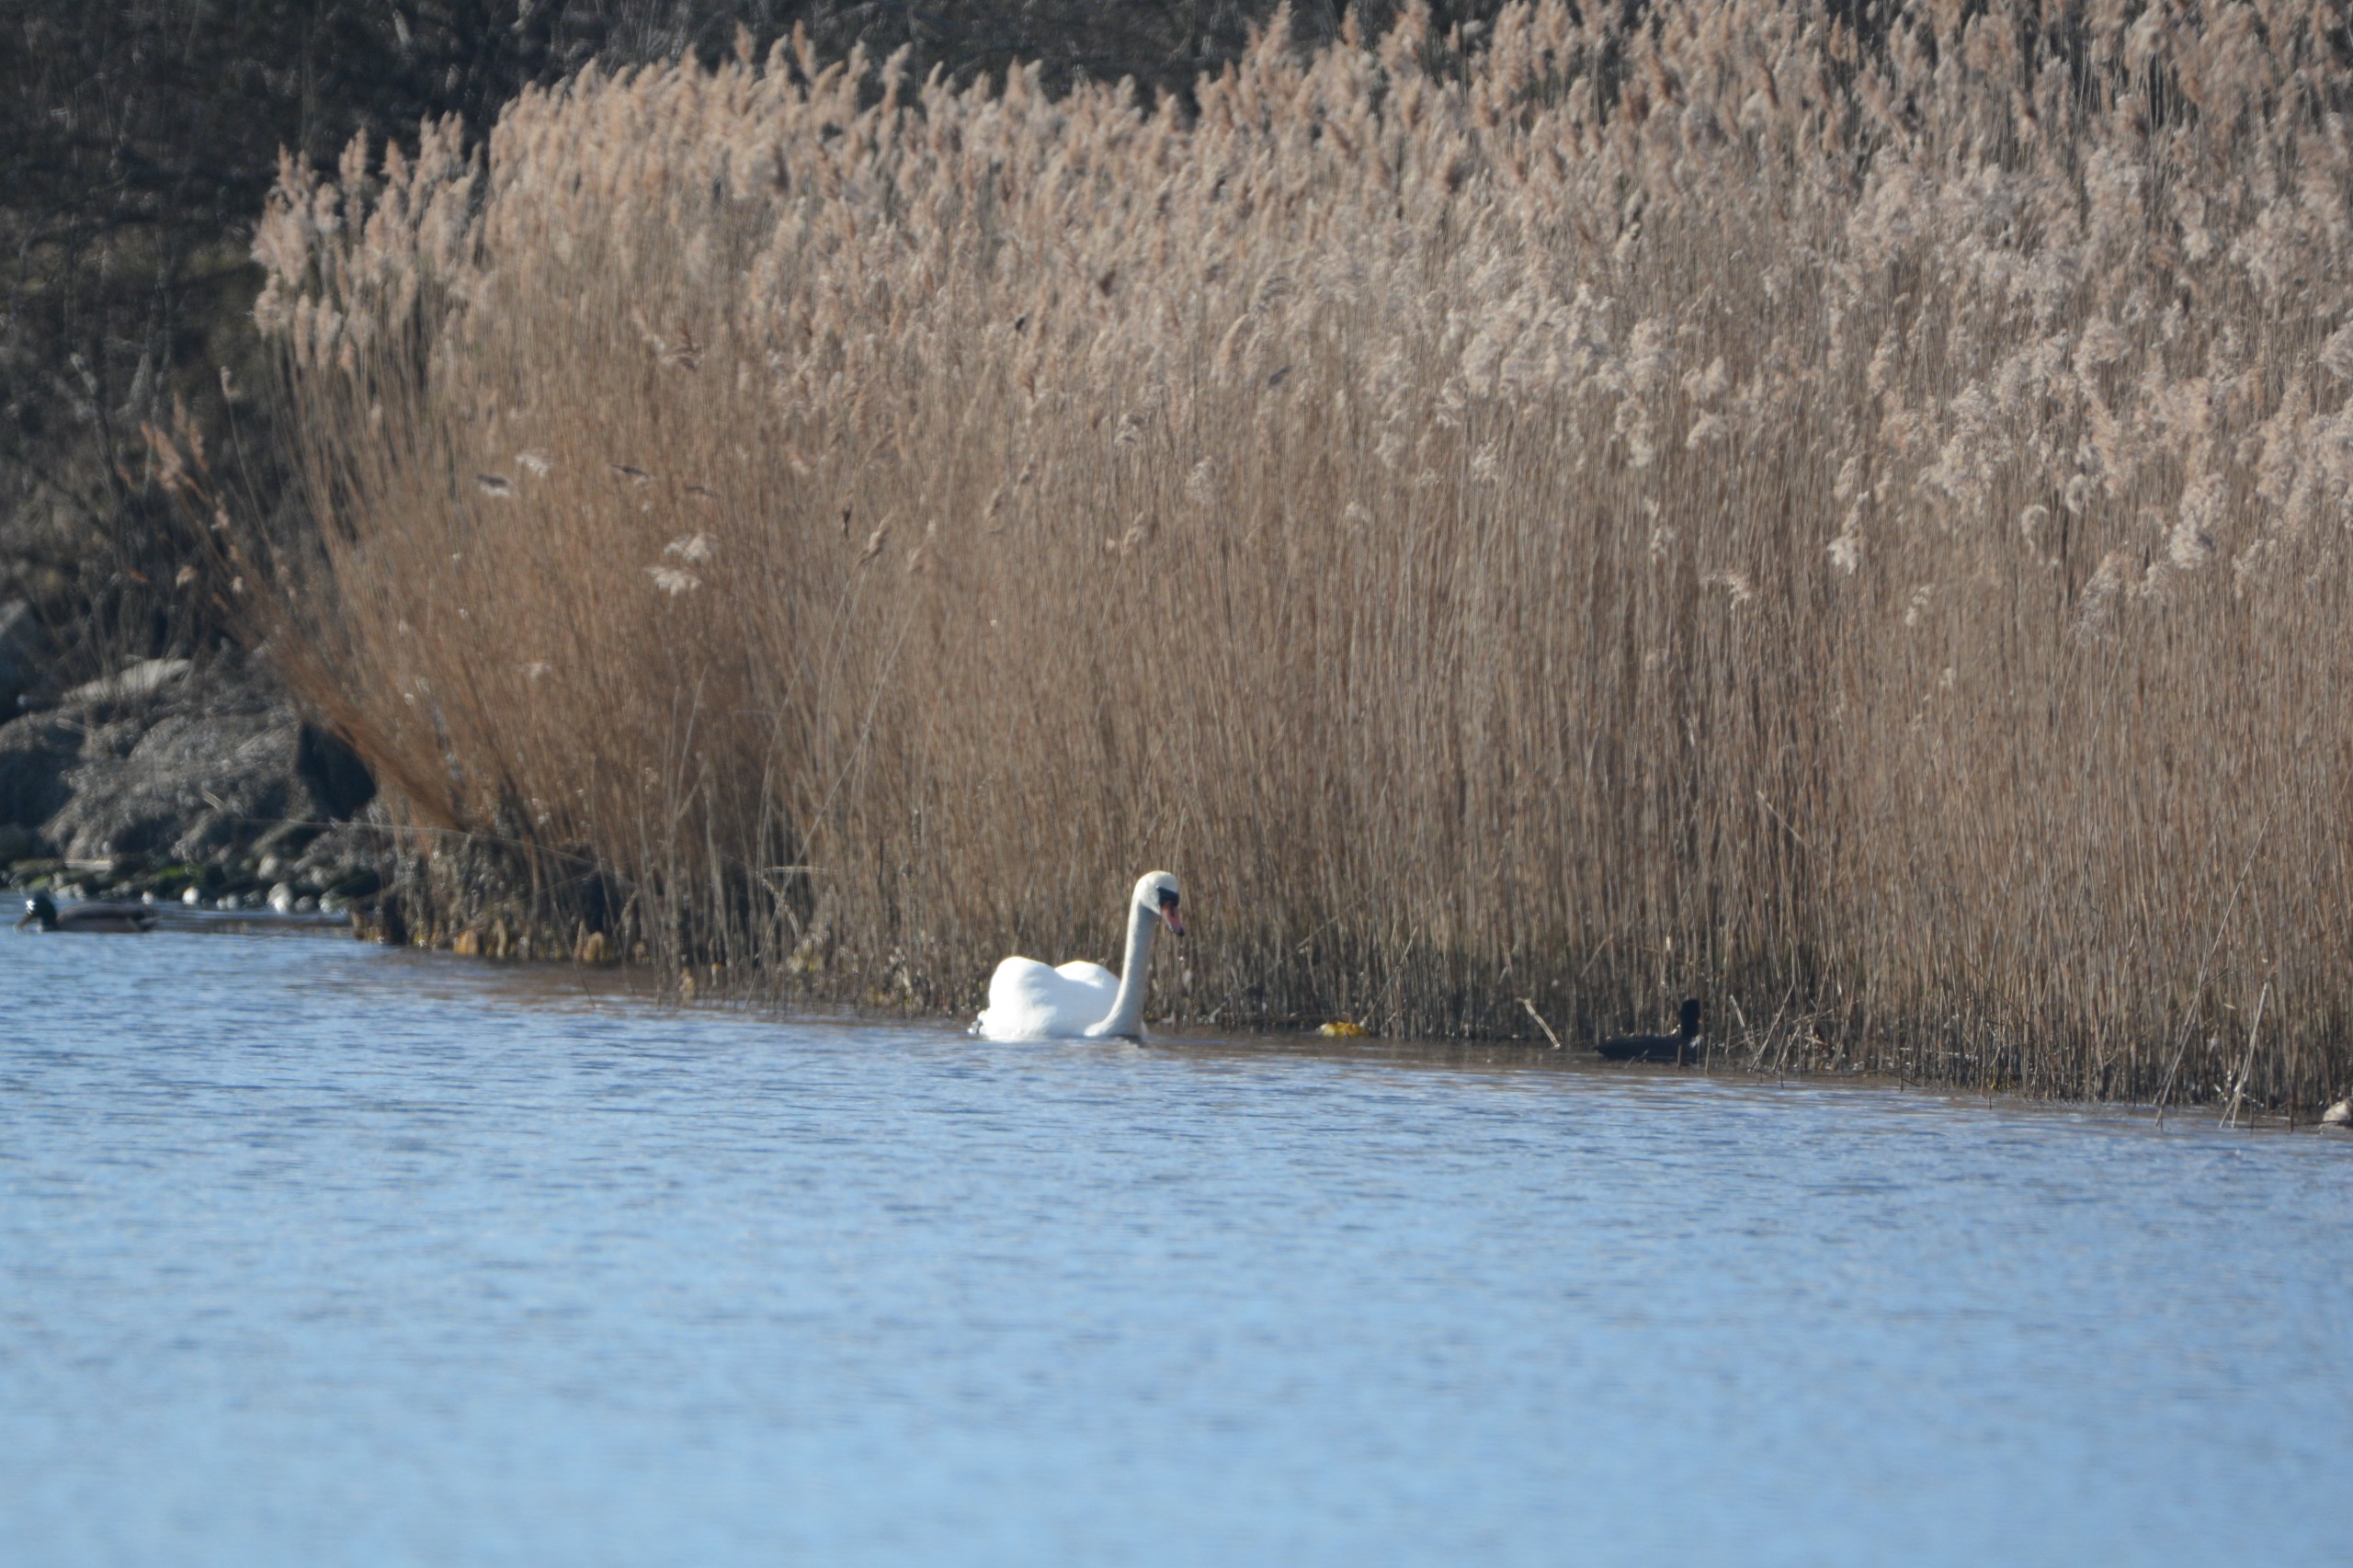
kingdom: Animalia
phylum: Chordata
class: Aves
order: Anseriformes
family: Anatidae
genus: Cygnus
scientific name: Cygnus olor
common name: Knopsvane
